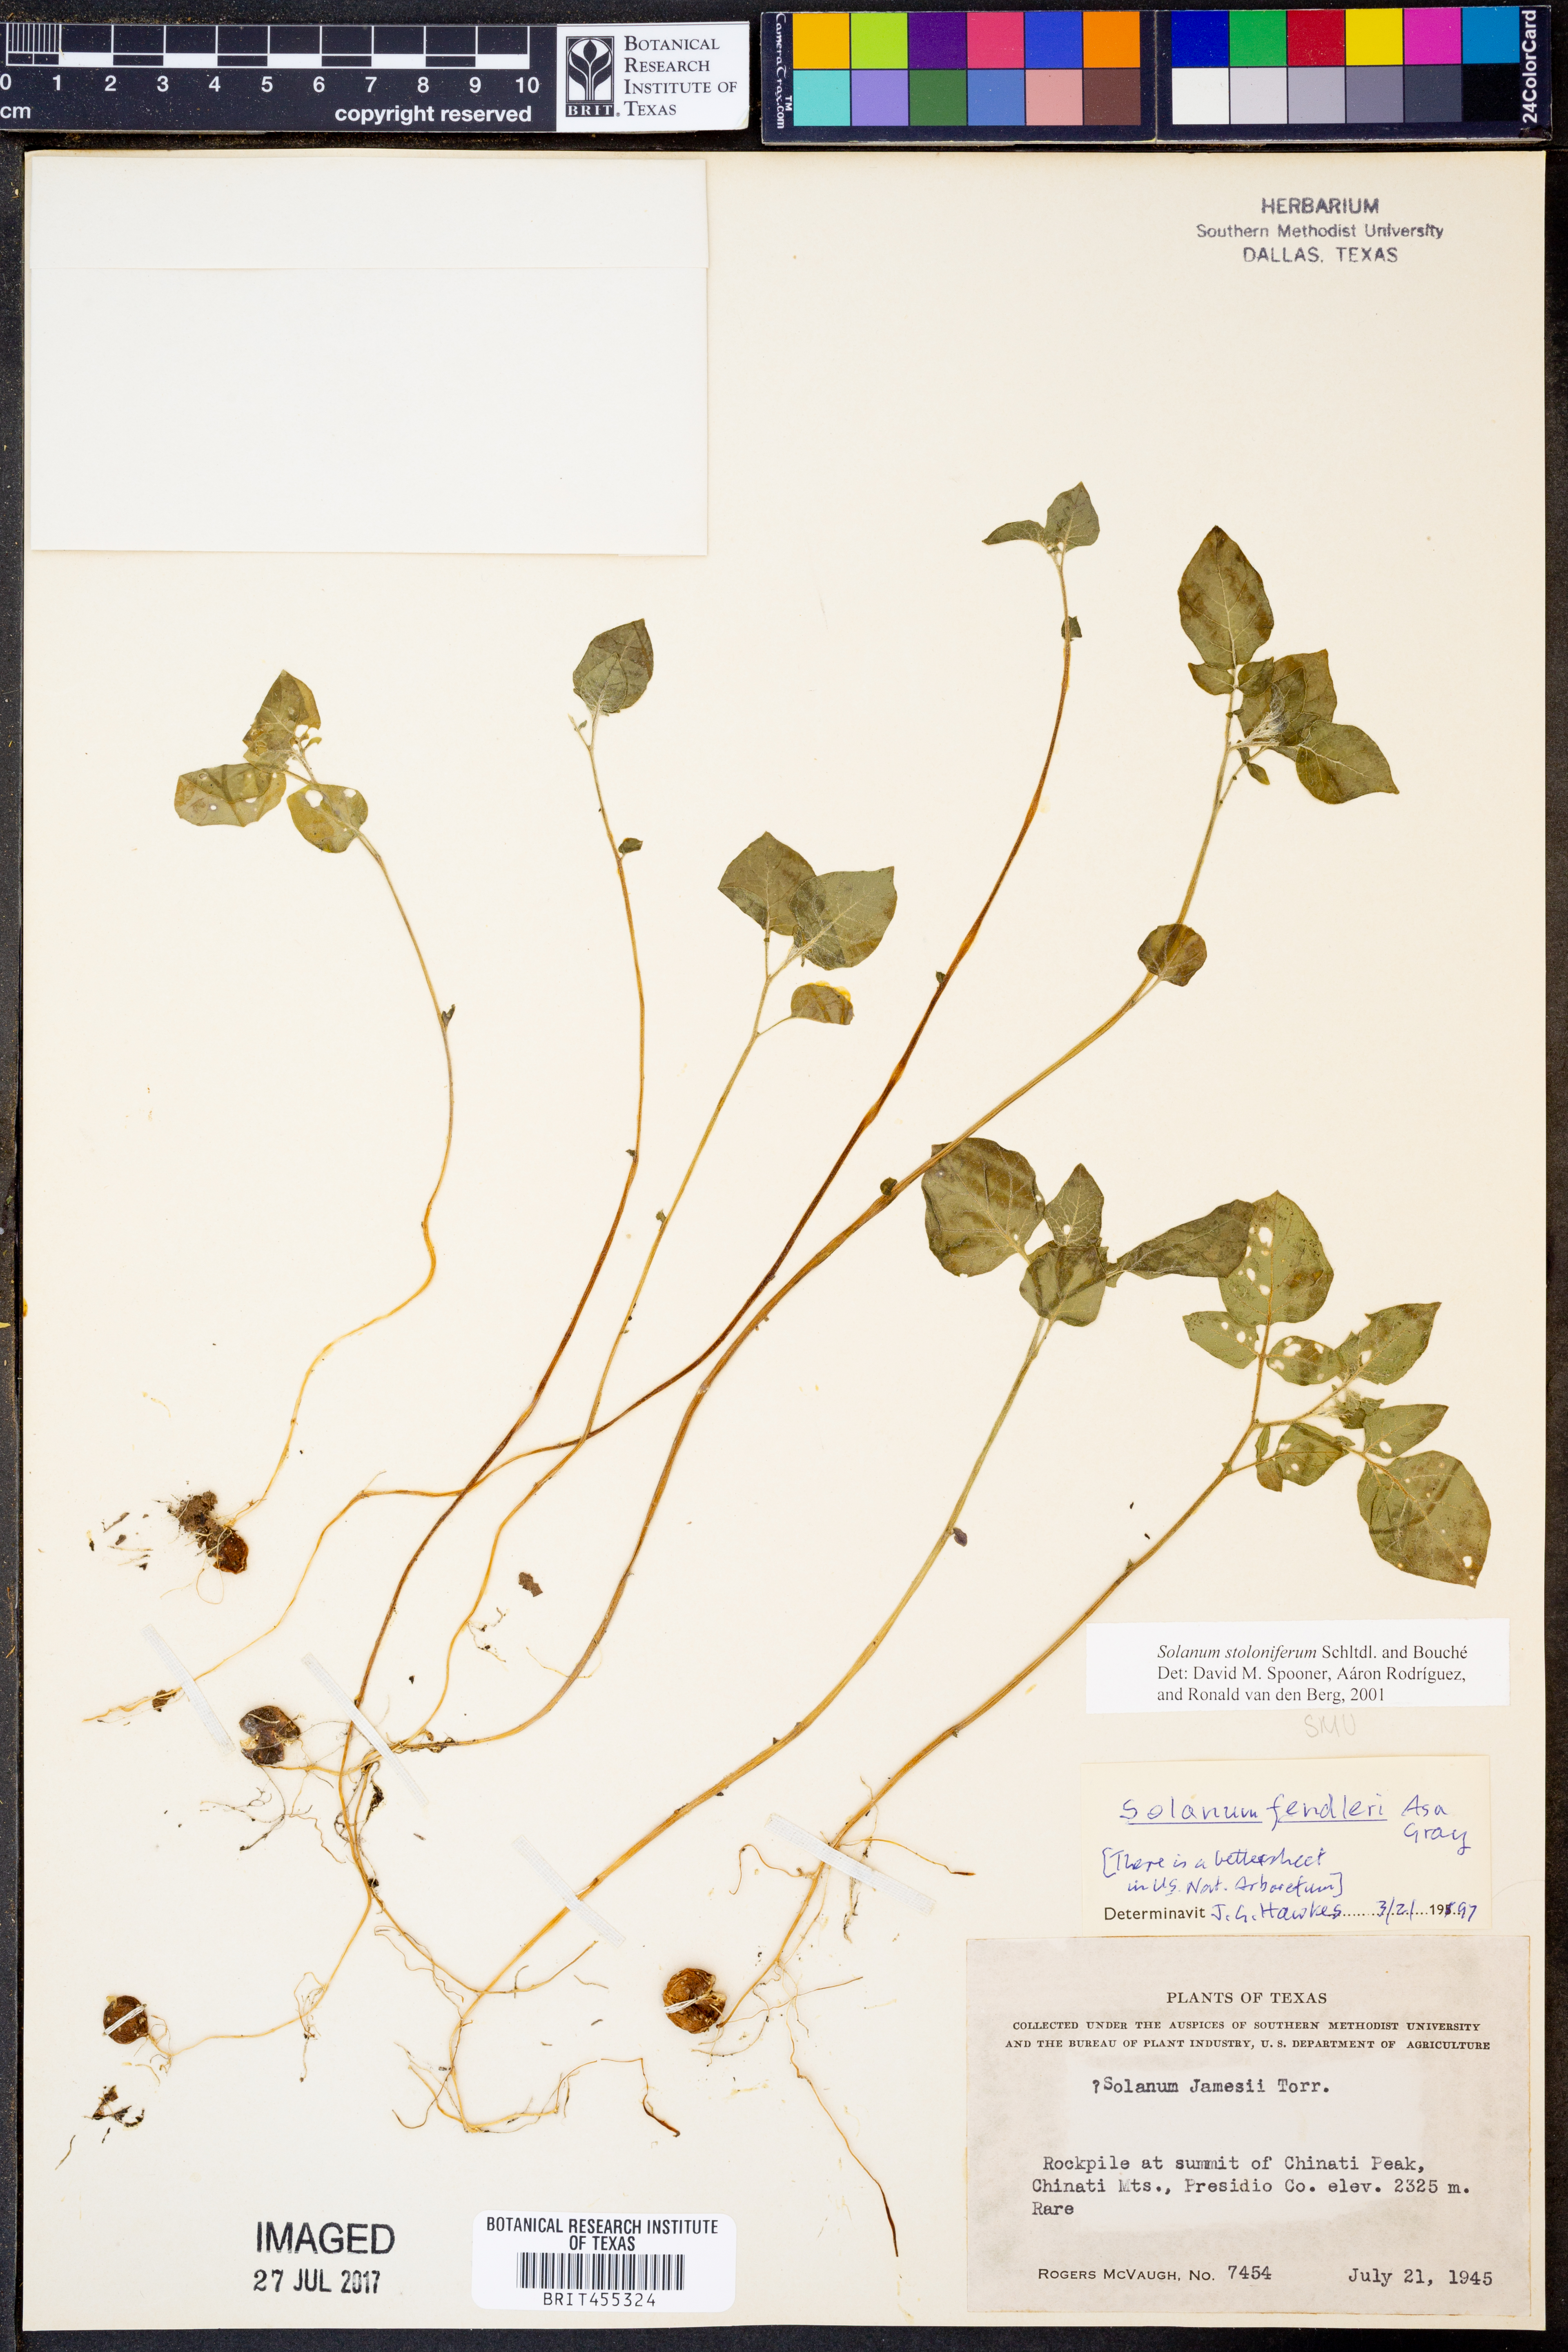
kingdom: Plantae
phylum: Tracheophyta
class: Magnoliopsida
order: Solanales
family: Solanaceae
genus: Solanum
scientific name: Solanum stoloniferum
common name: Fendler's nighshade
